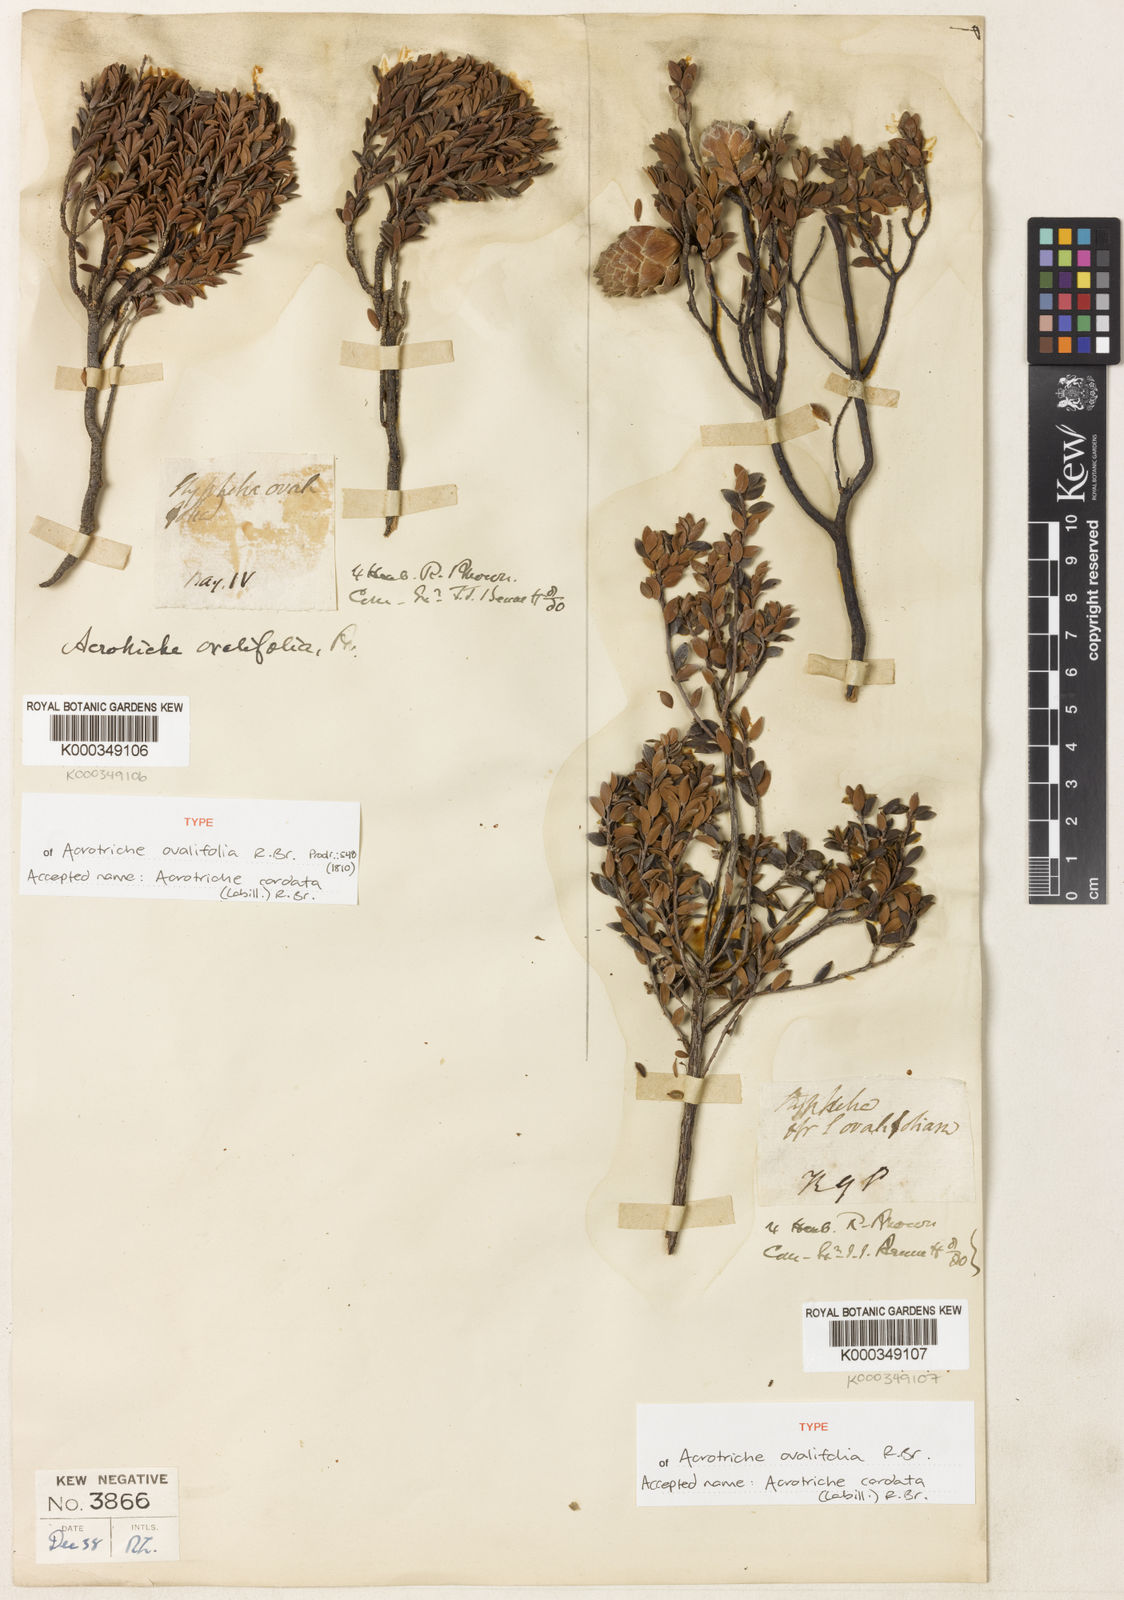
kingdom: Plantae
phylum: Tracheophyta
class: Magnoliopsida
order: Ericales
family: Ericaceae
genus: Acrotriche
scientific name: Acrotriche cordata
